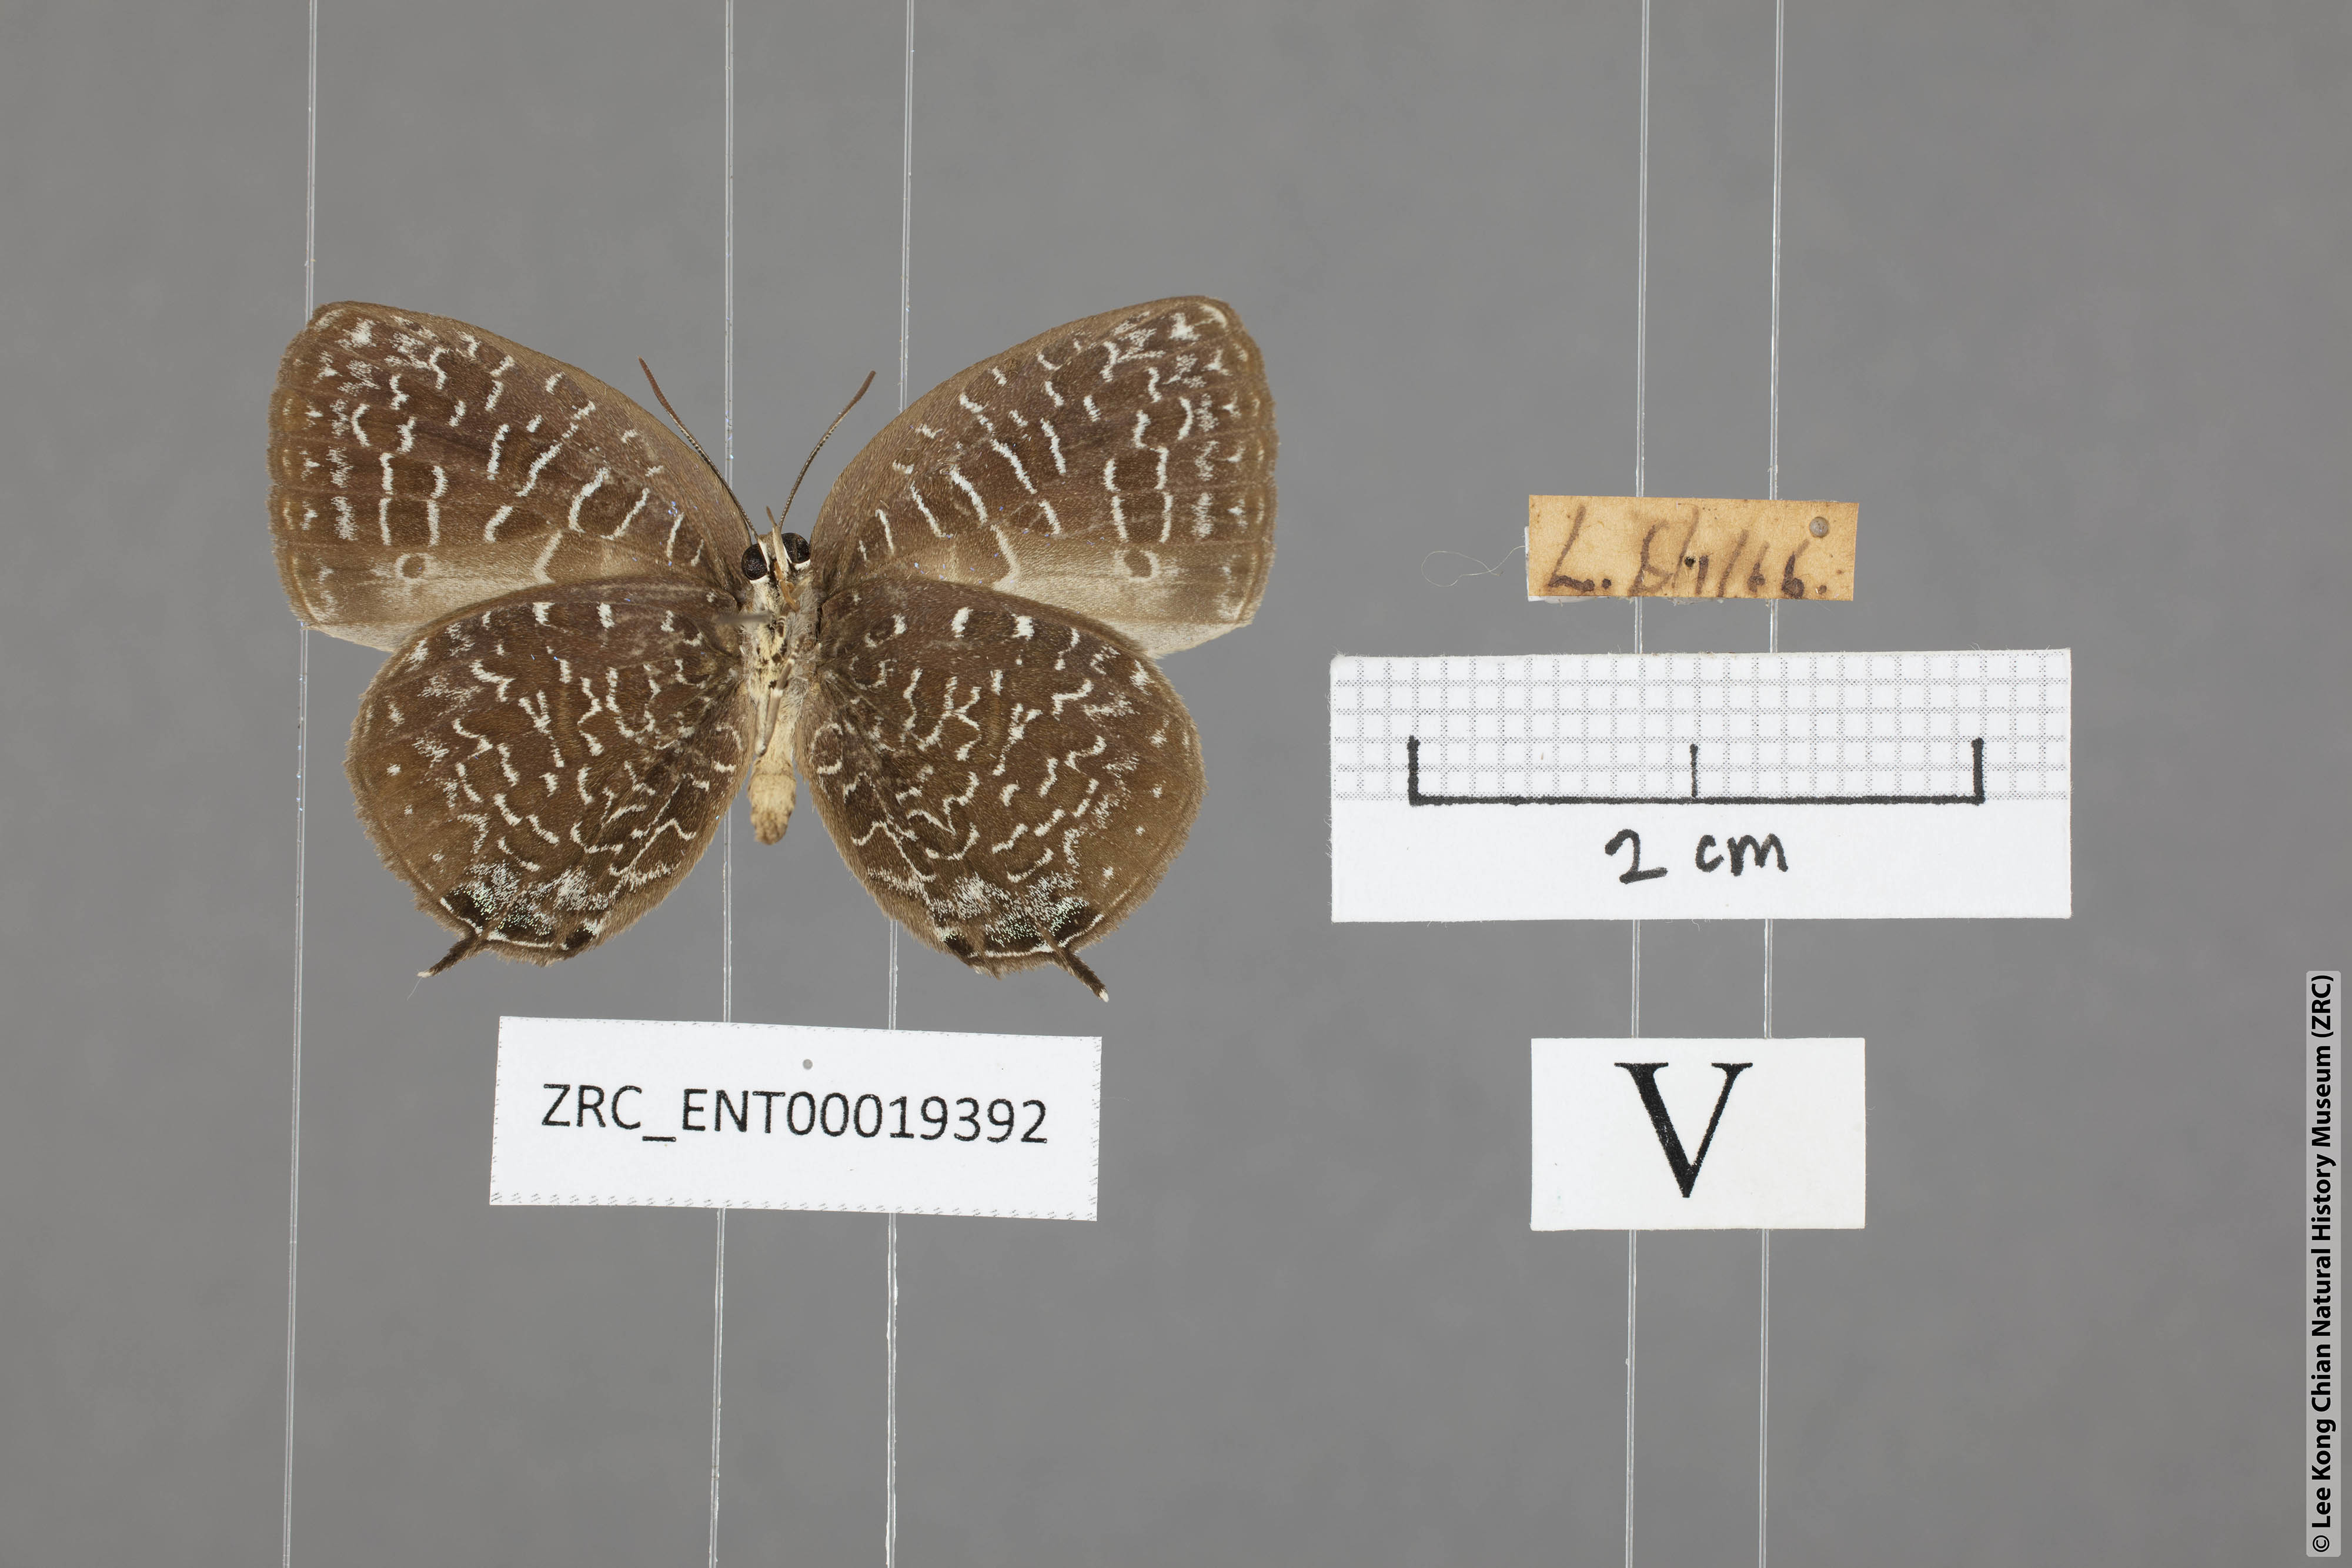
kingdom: Animalia
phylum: Arthropoda
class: Insecta
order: Lepidoptera
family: Lycaenidae
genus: Arhopala
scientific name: Arhopala democritus
